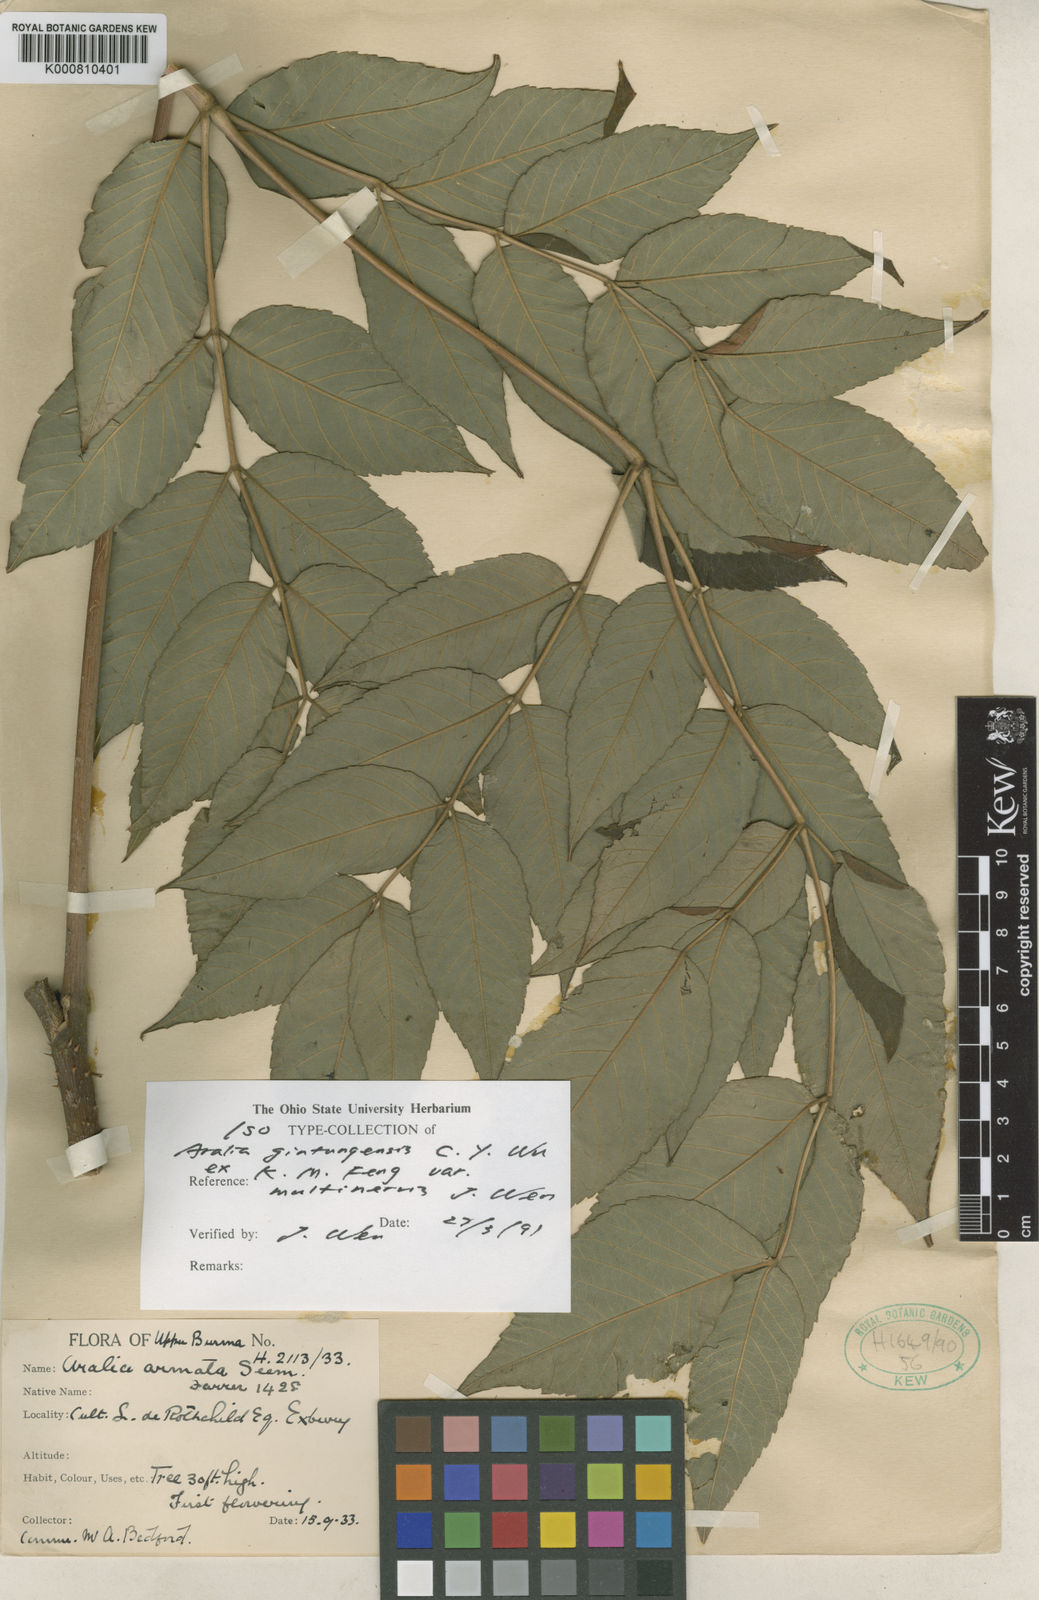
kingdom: Plantae
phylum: Tracheophyta
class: Magnoliopsida
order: Apiales
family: Araliaceae
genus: Aralia
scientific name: Aralia gintungensis
